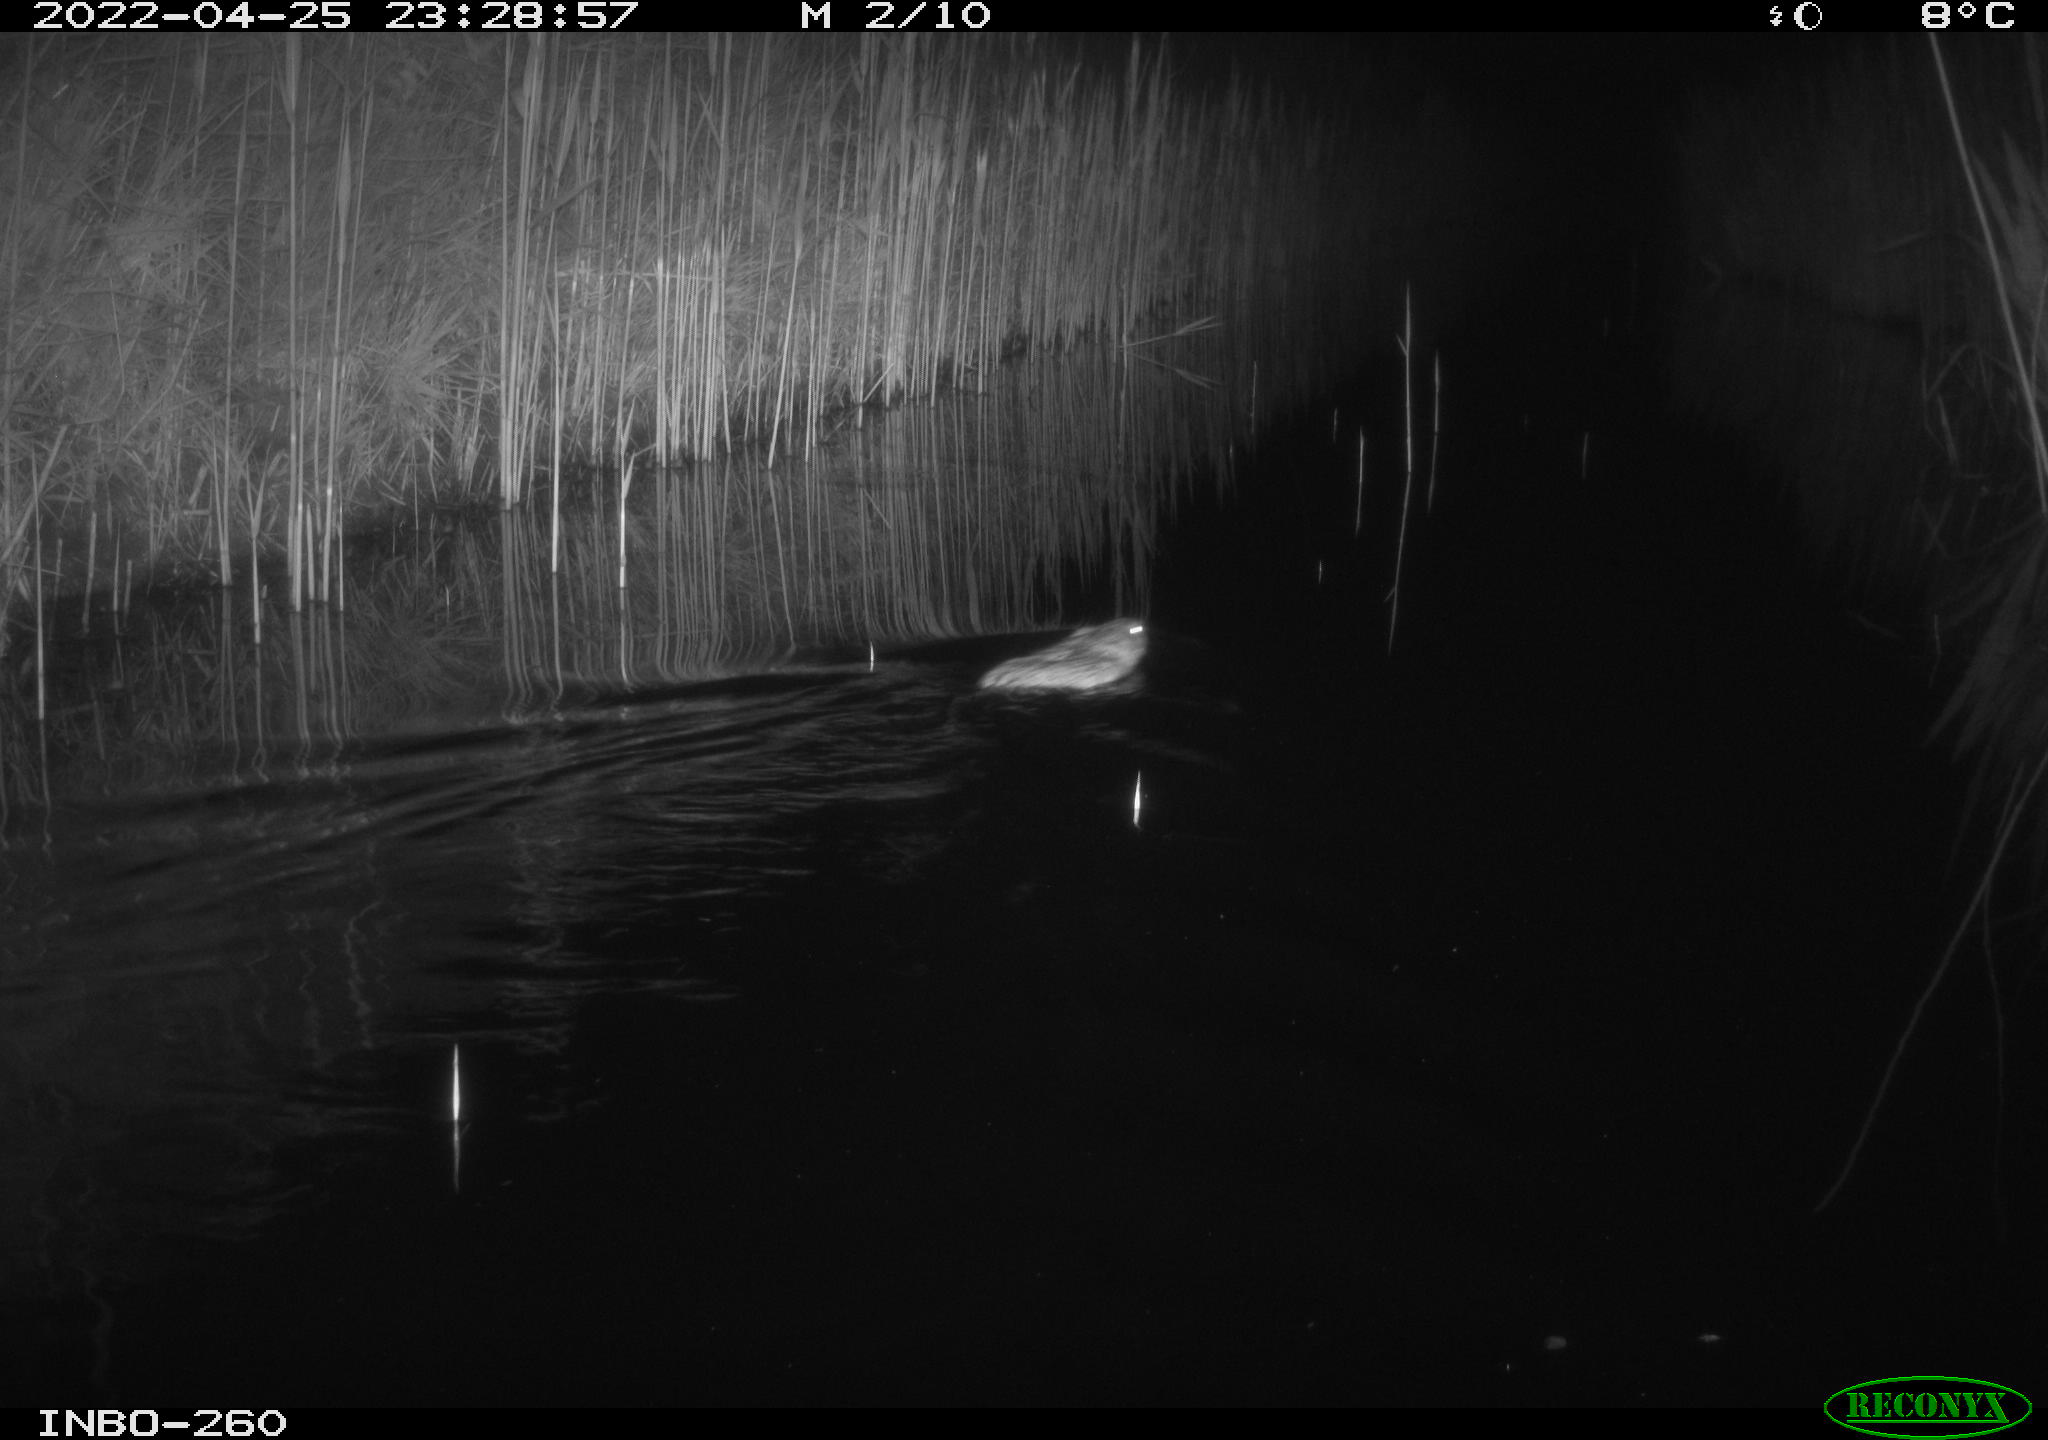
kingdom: Animalia
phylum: Chordata
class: Mammalia
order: Rodentia
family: Cricetidae
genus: Ondatra
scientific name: Ondatra zibethicus
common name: Muskrat
